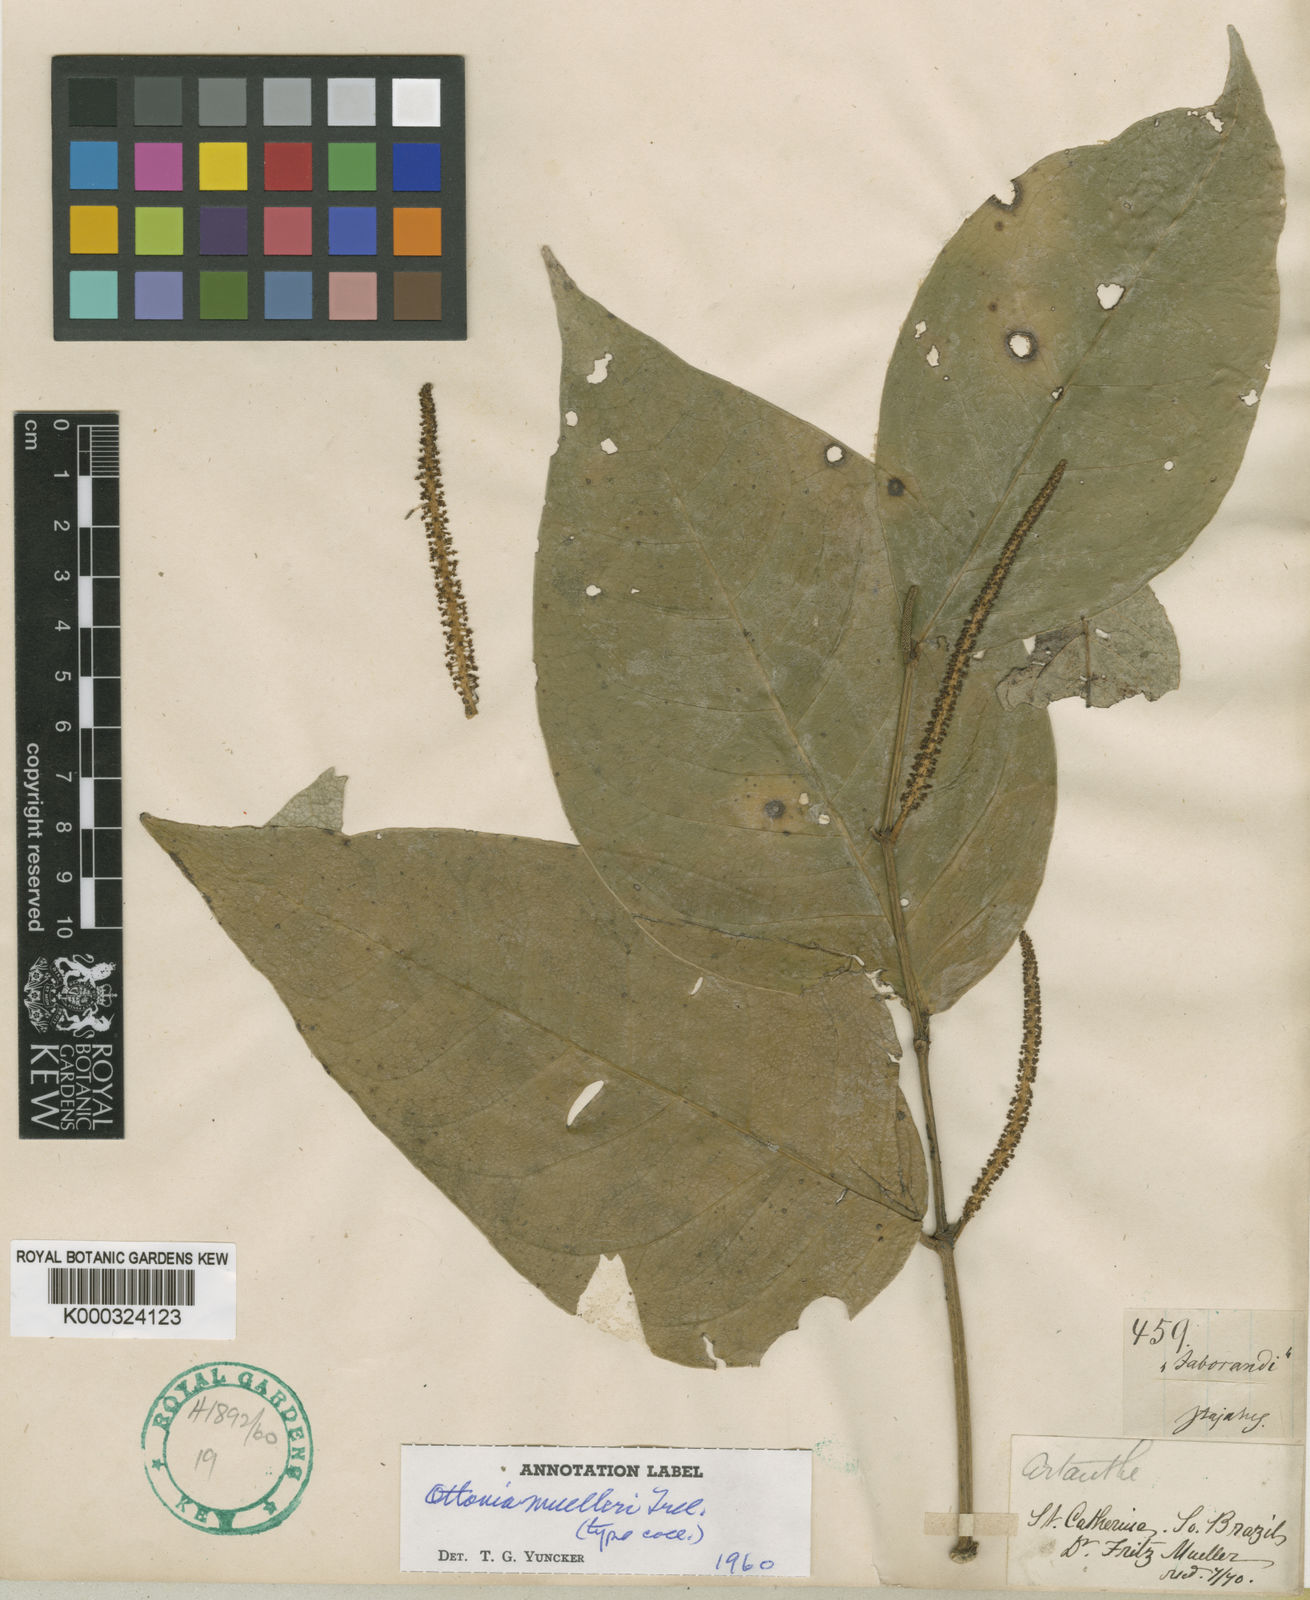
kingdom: Plantae
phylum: Tracheophyta
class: Magnoliopsida
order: Piperales
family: Piperaceae
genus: Piper
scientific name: Piper
